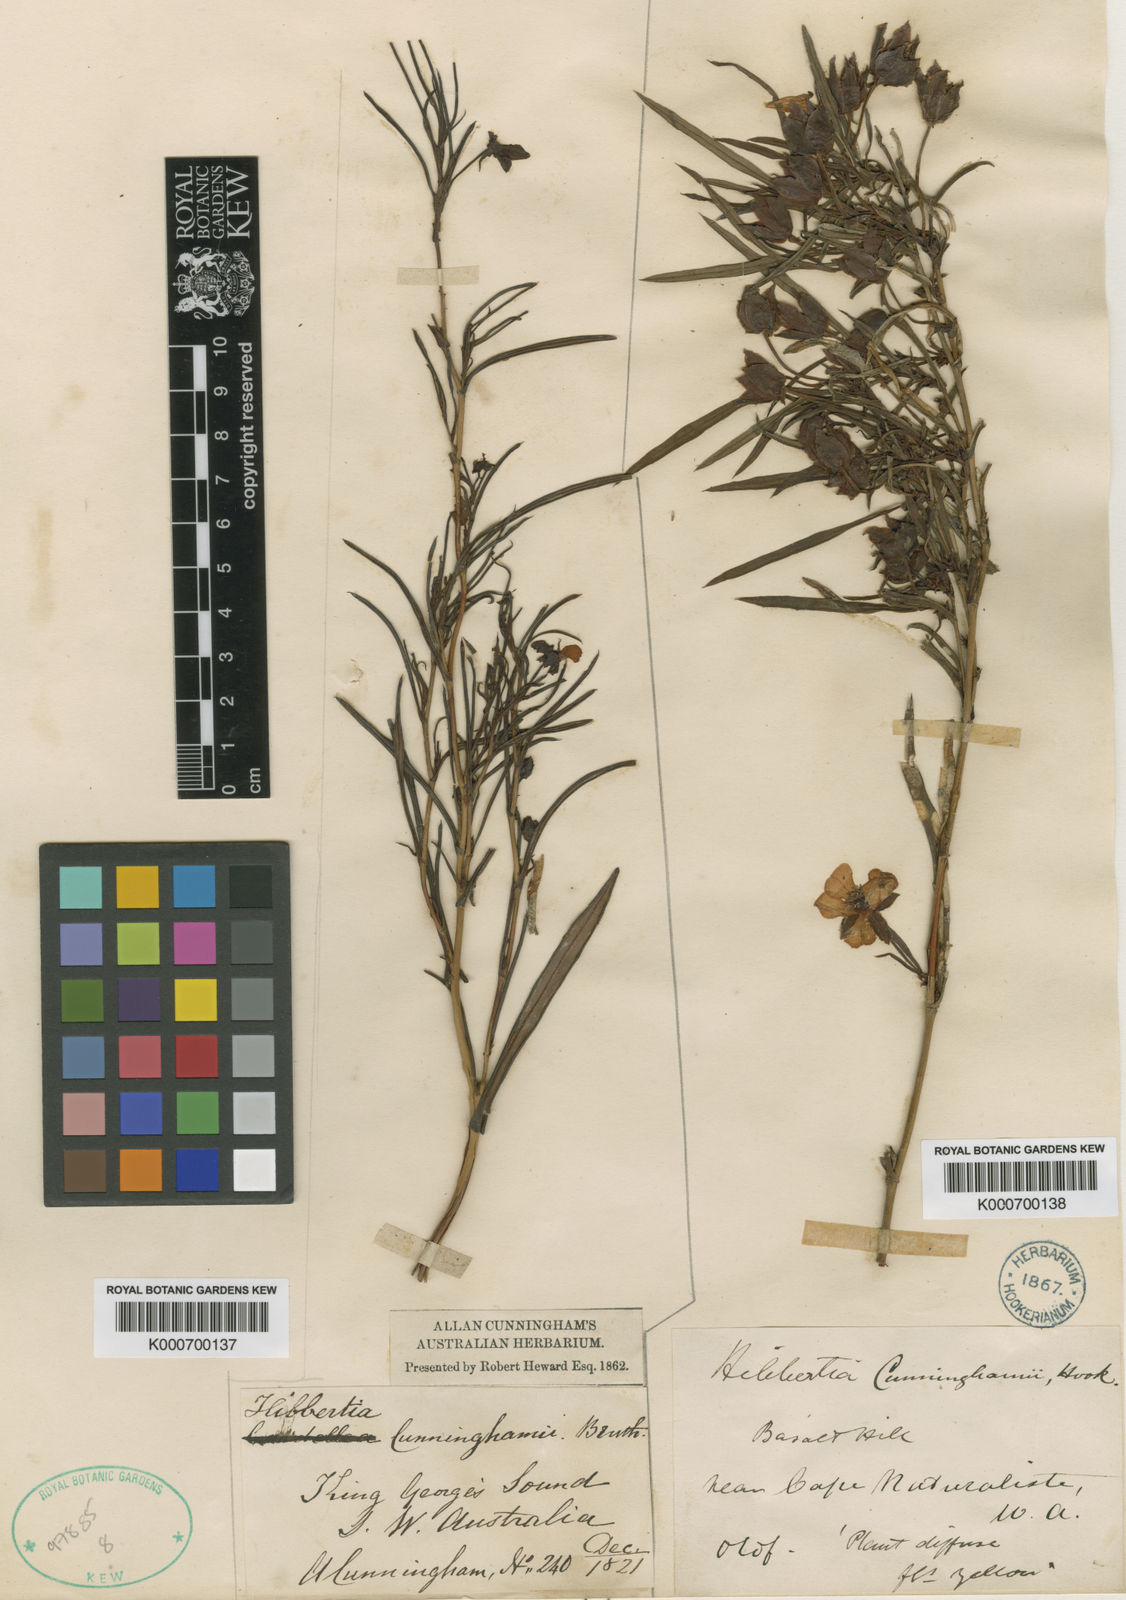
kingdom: Plantae
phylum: Tracheophyta
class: Magnoliopsida
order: Dilleniales
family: Dilleniaceae
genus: Hibbertia
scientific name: Hibbertia cunninghamii
